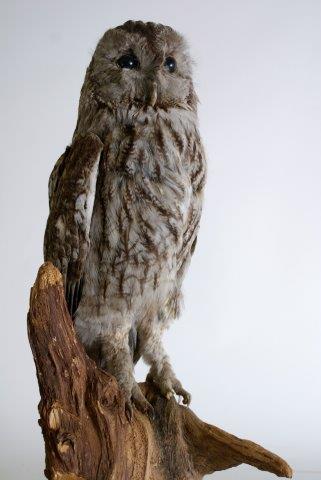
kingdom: Animalia
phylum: Chordata
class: Aves
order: Strigiformes
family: Strigidae
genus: Strix
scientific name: Strix aluco
